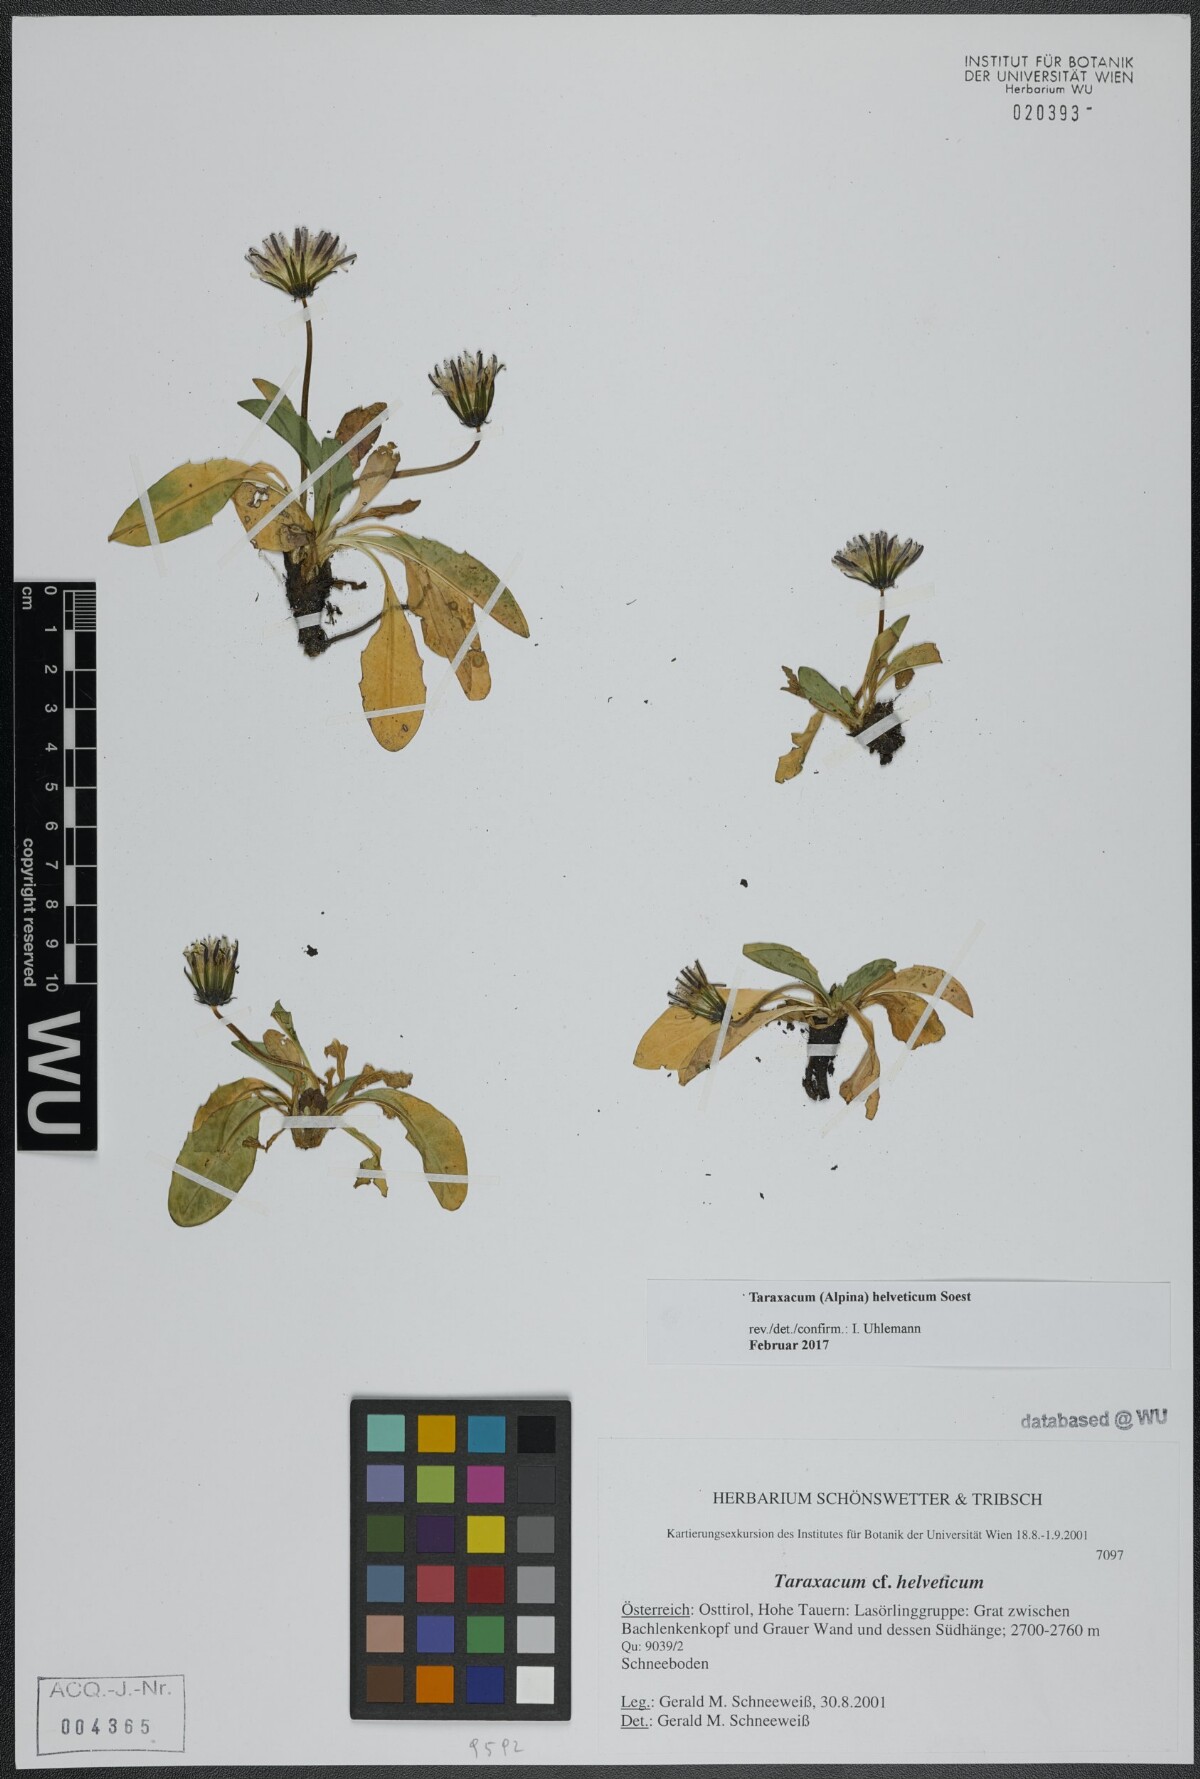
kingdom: Plantae
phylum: Tracheophyta
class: Magnoliopsida
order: Asterales
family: Asteraceae
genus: Taraxacum
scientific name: Taraxacum helveticum
